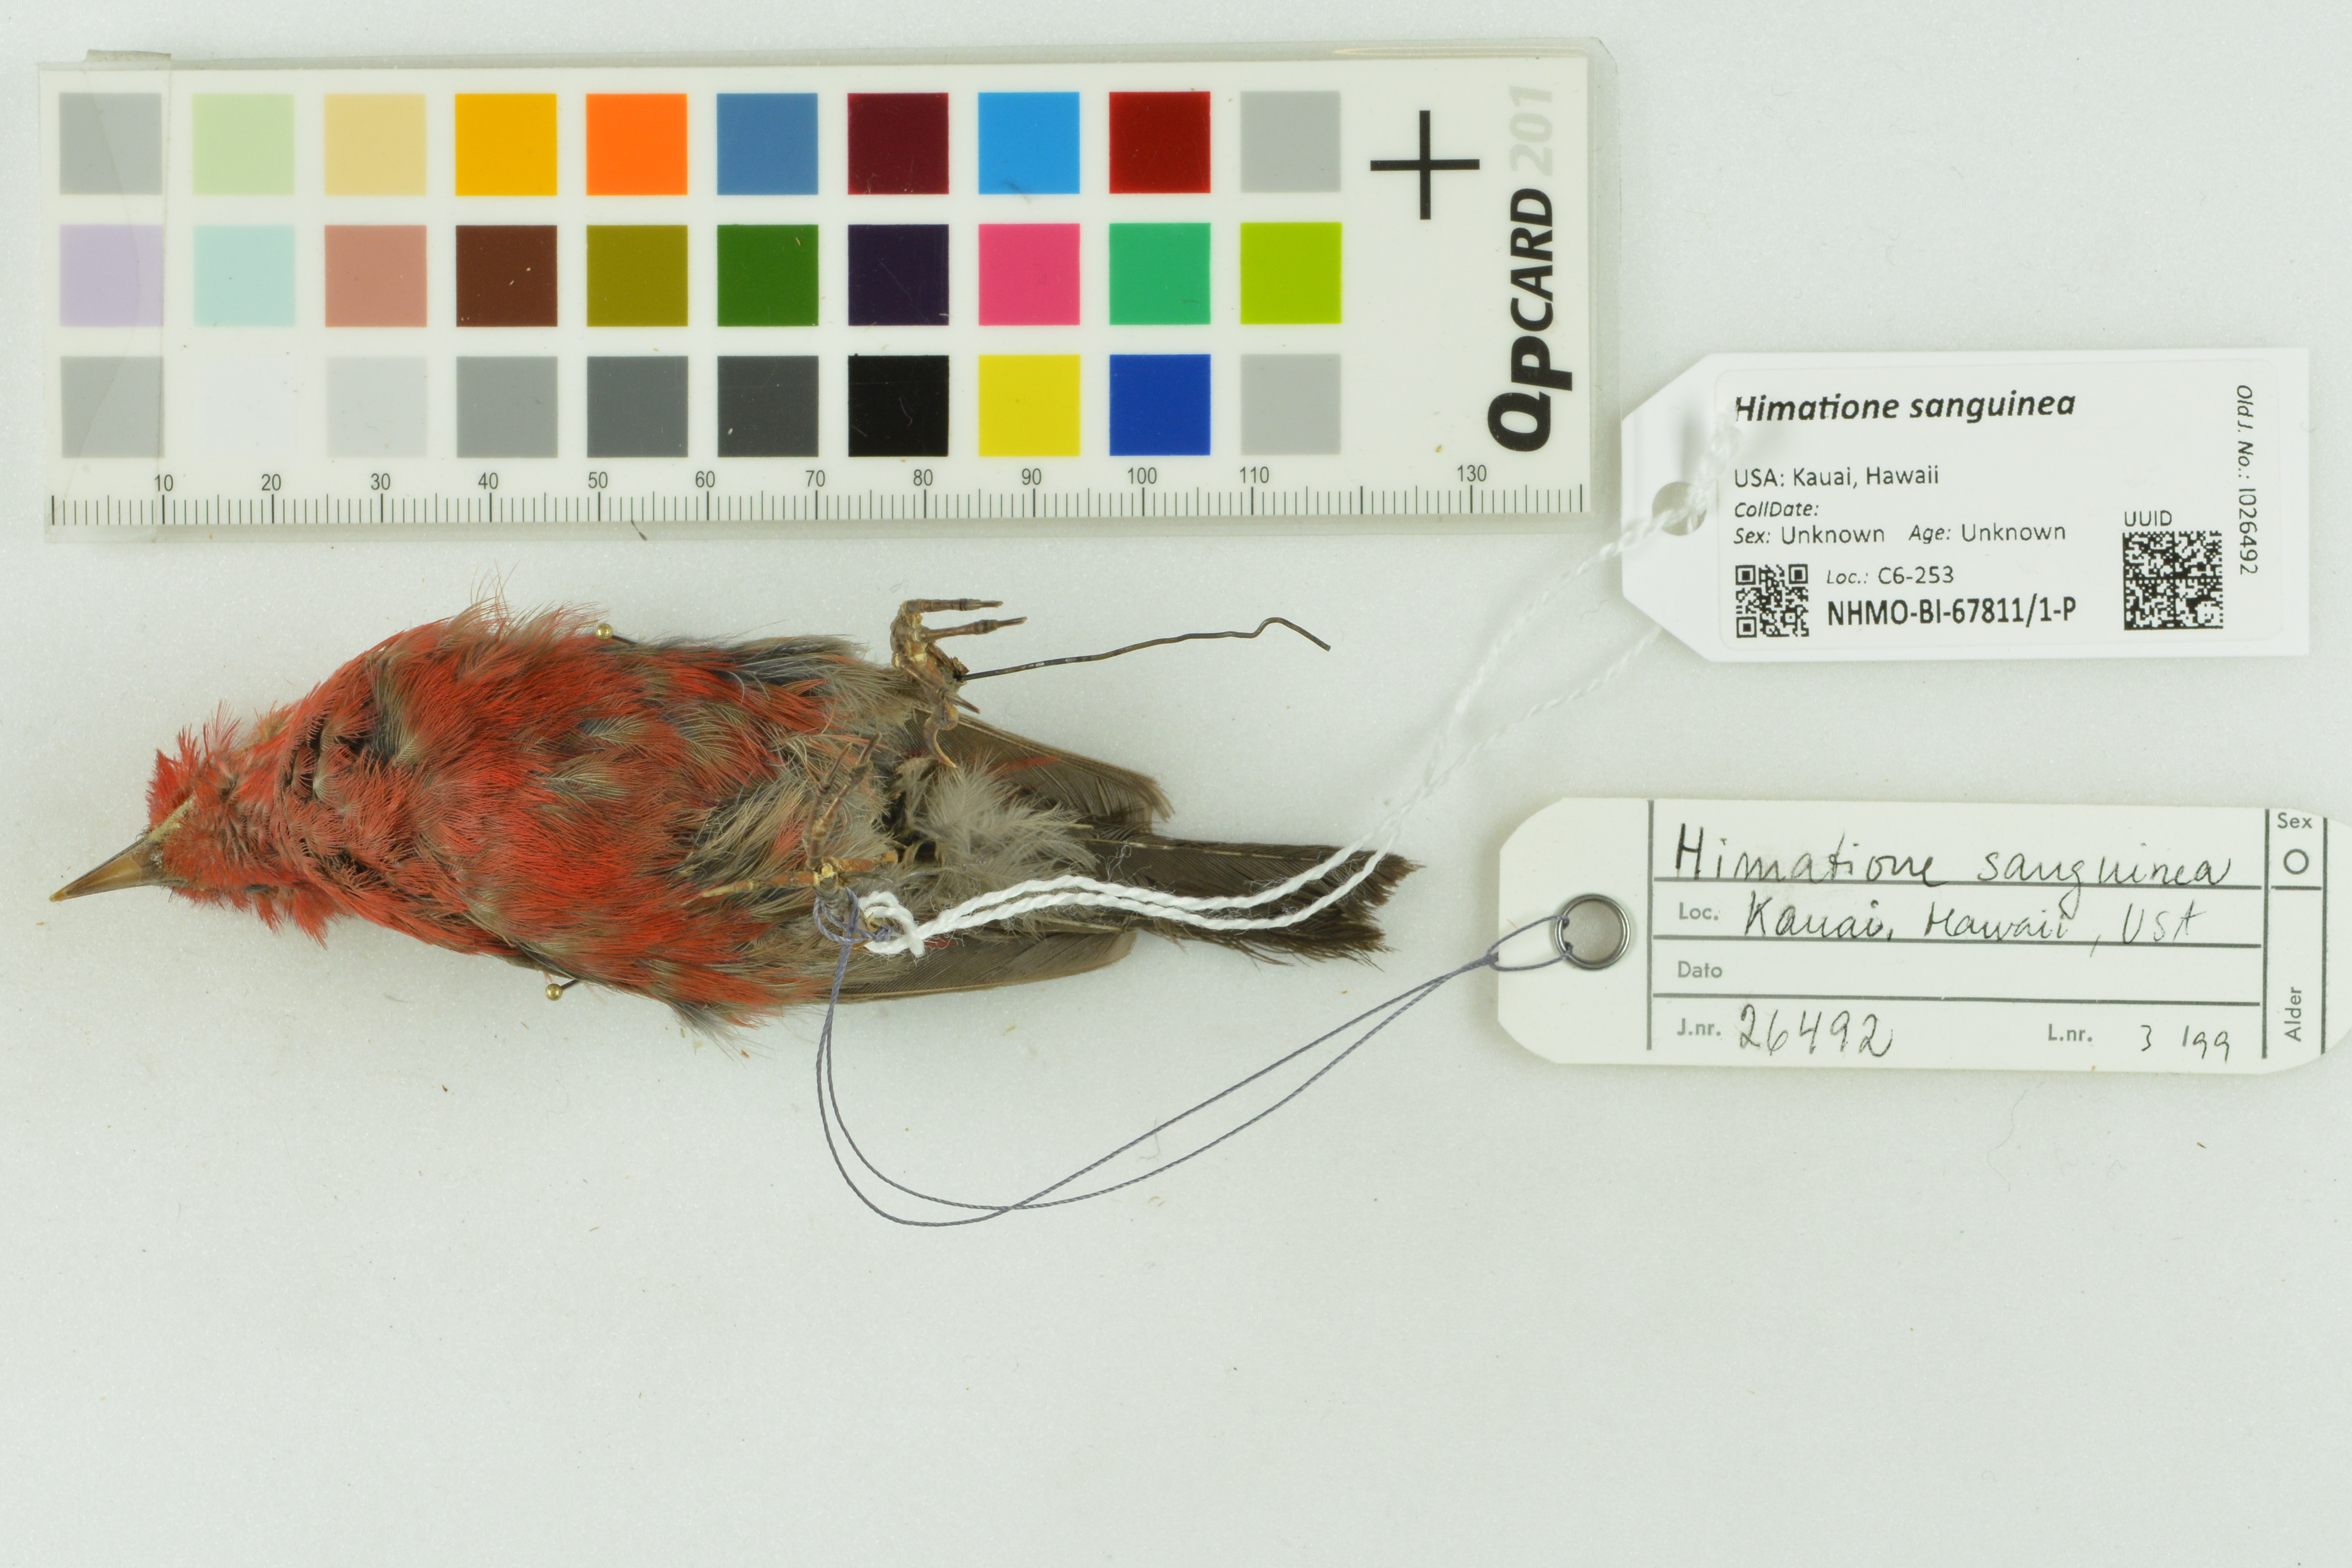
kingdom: Animalia
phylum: Chordata
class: Aves
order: Passeriformes
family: Fringillidae
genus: Himatione
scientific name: Himatione sanguinea
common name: Apapane
